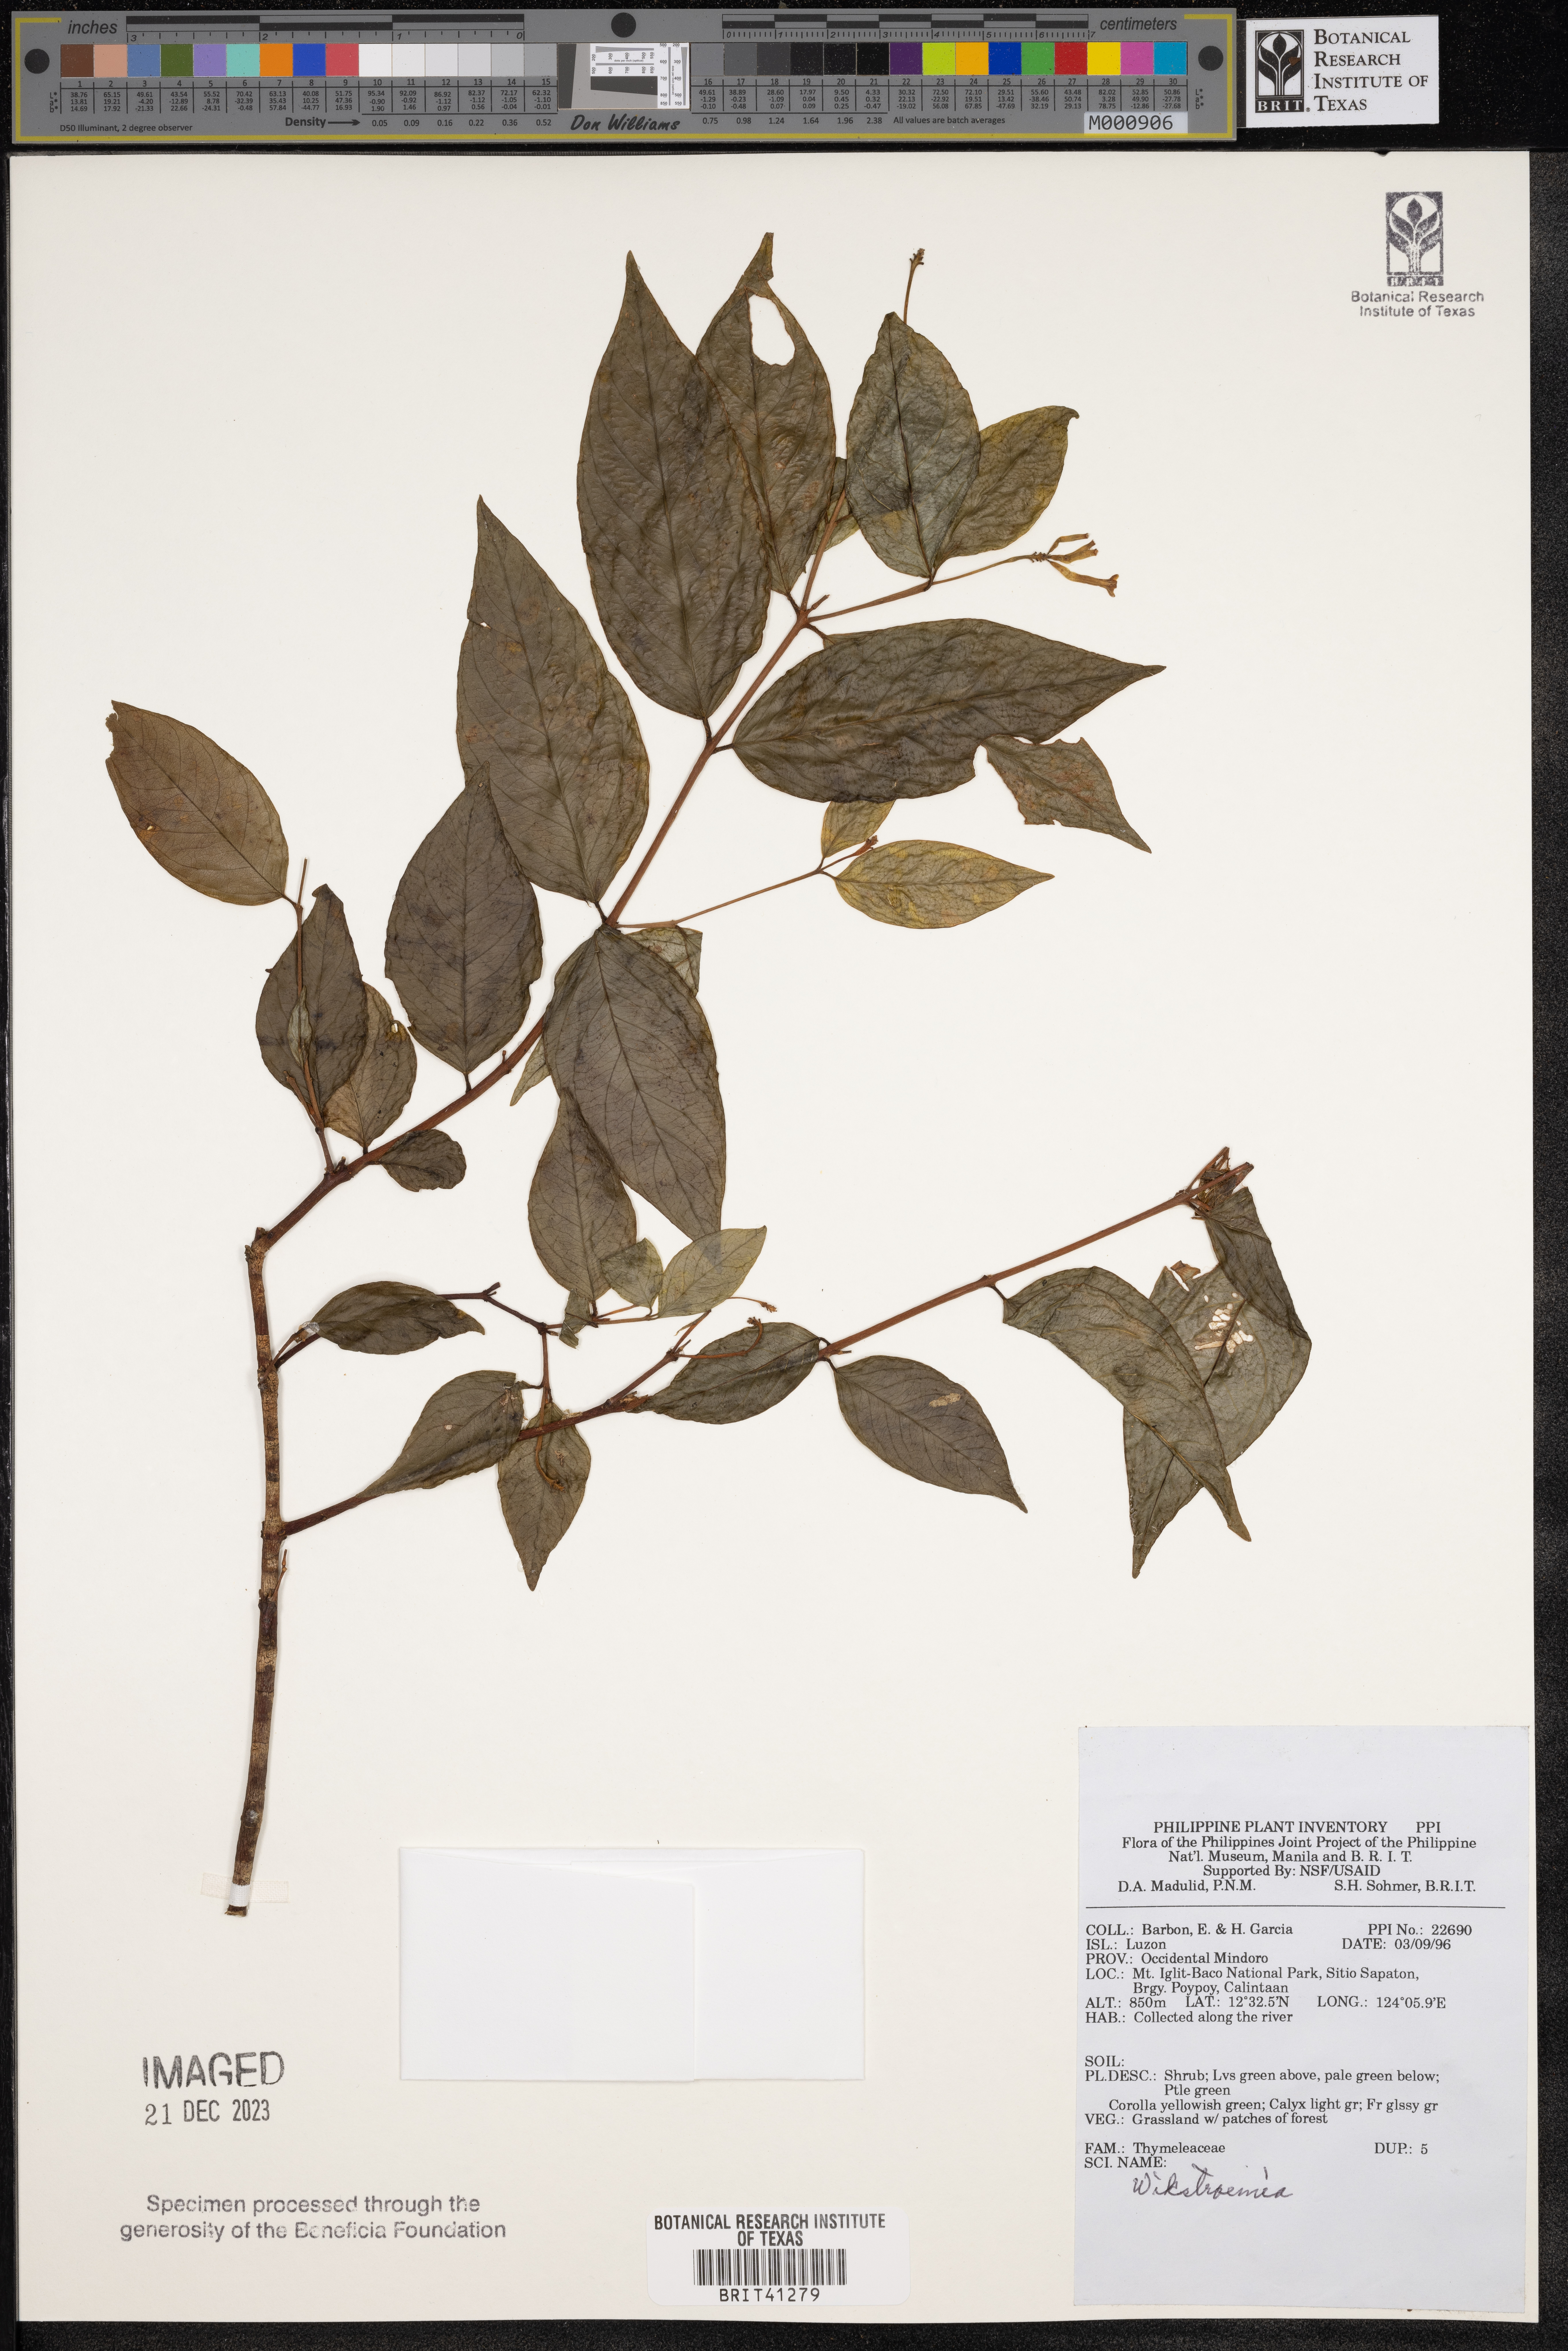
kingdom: Plantae
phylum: Tracheophyta
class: Magnoliopsida
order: Malvales
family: Thymelaeaceae
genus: Wikstroemia
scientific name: Wikstroemia
